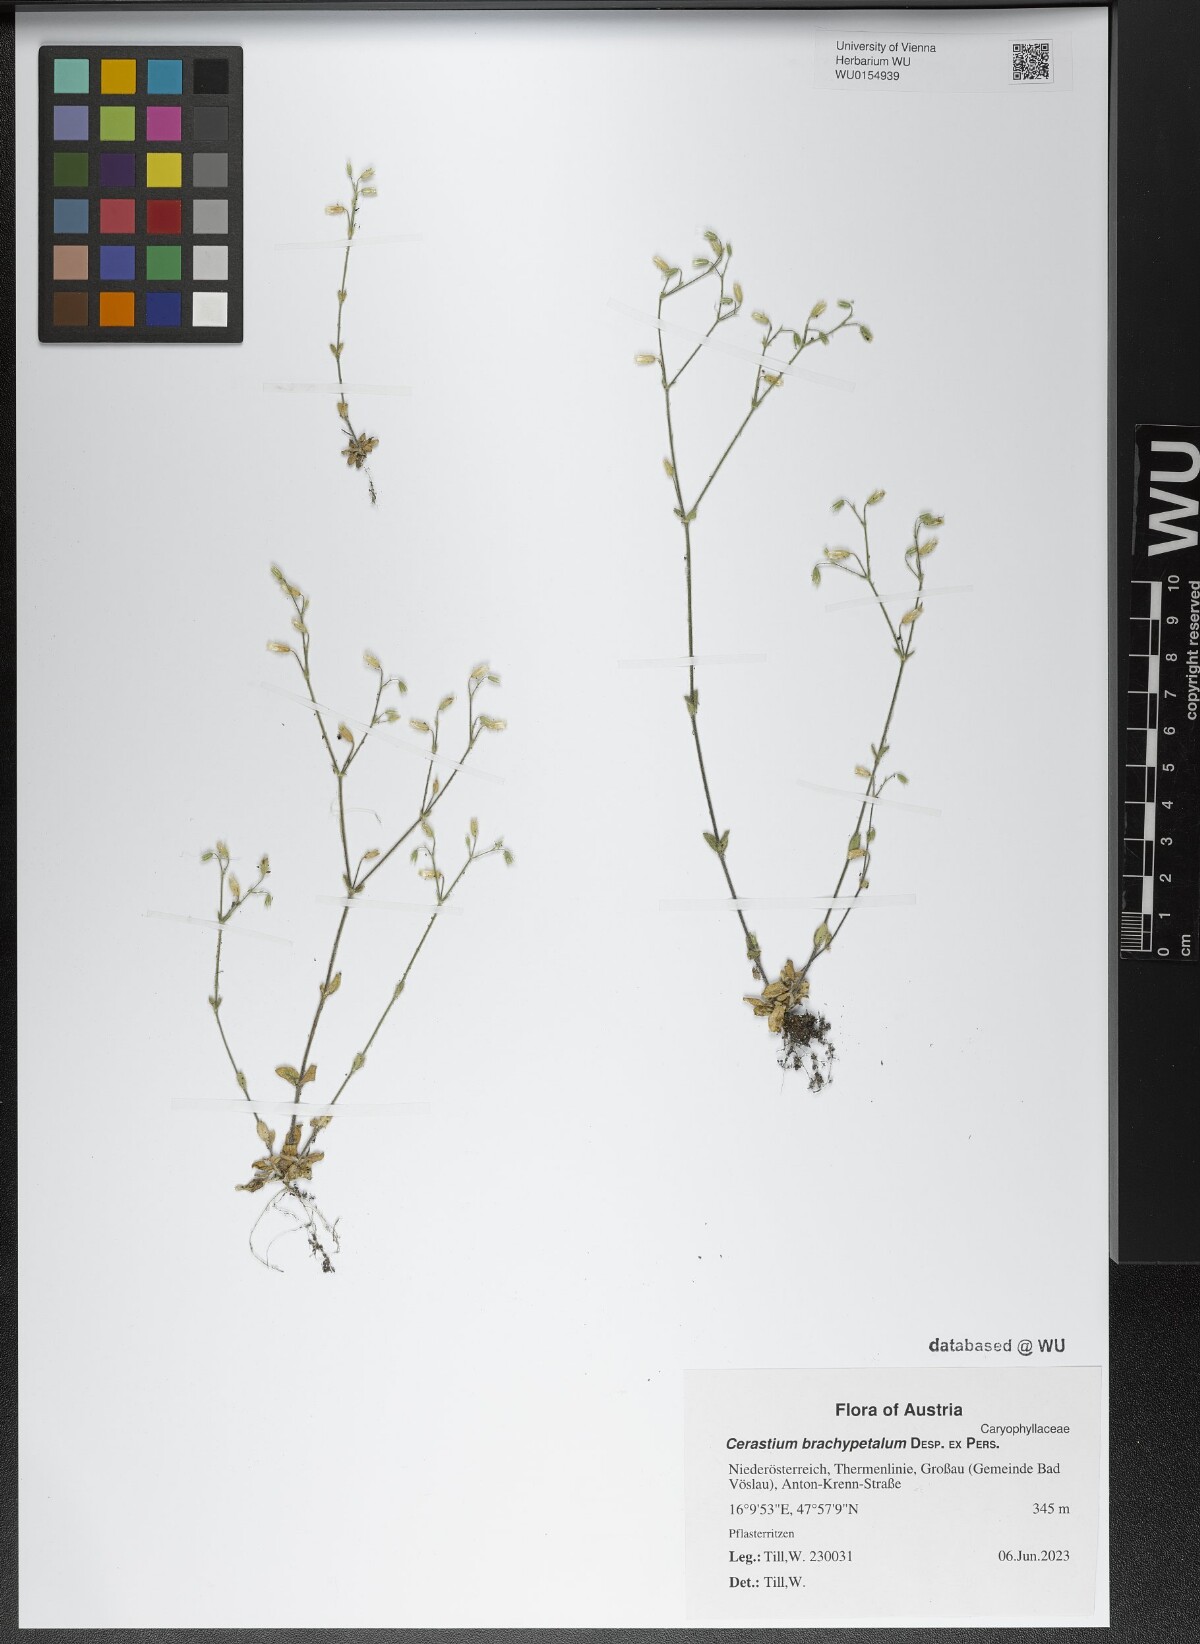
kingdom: Plantae
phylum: Tracheophyta
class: Magnoliopsida
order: Caryophyllales
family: Caryophyllaceae
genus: Cerastium
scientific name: Cerastium brachypetalum
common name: Grey mouse-ear
